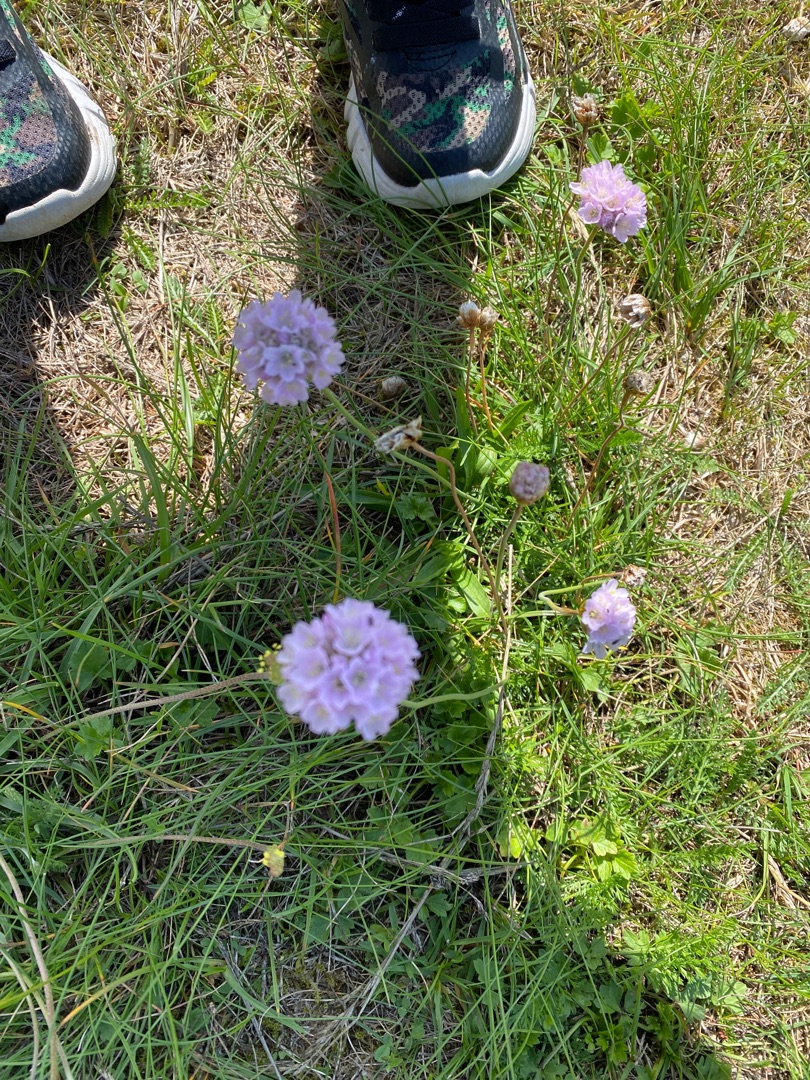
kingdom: Plantae
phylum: Tracheophyta
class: Magnoliopsida
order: Caryophyllales
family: Plumbaginaceae
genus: Armeria
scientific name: Armeria maritima
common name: Engelskgræs
